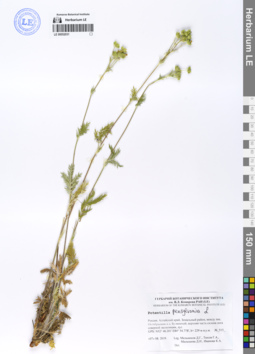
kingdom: Plantae
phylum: Tracheophyta
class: Magnoliopsida
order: Rosales
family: Rosaceae
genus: Potentilla
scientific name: Potentilla pensylvanica
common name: Pennsylvania cinquefoil
